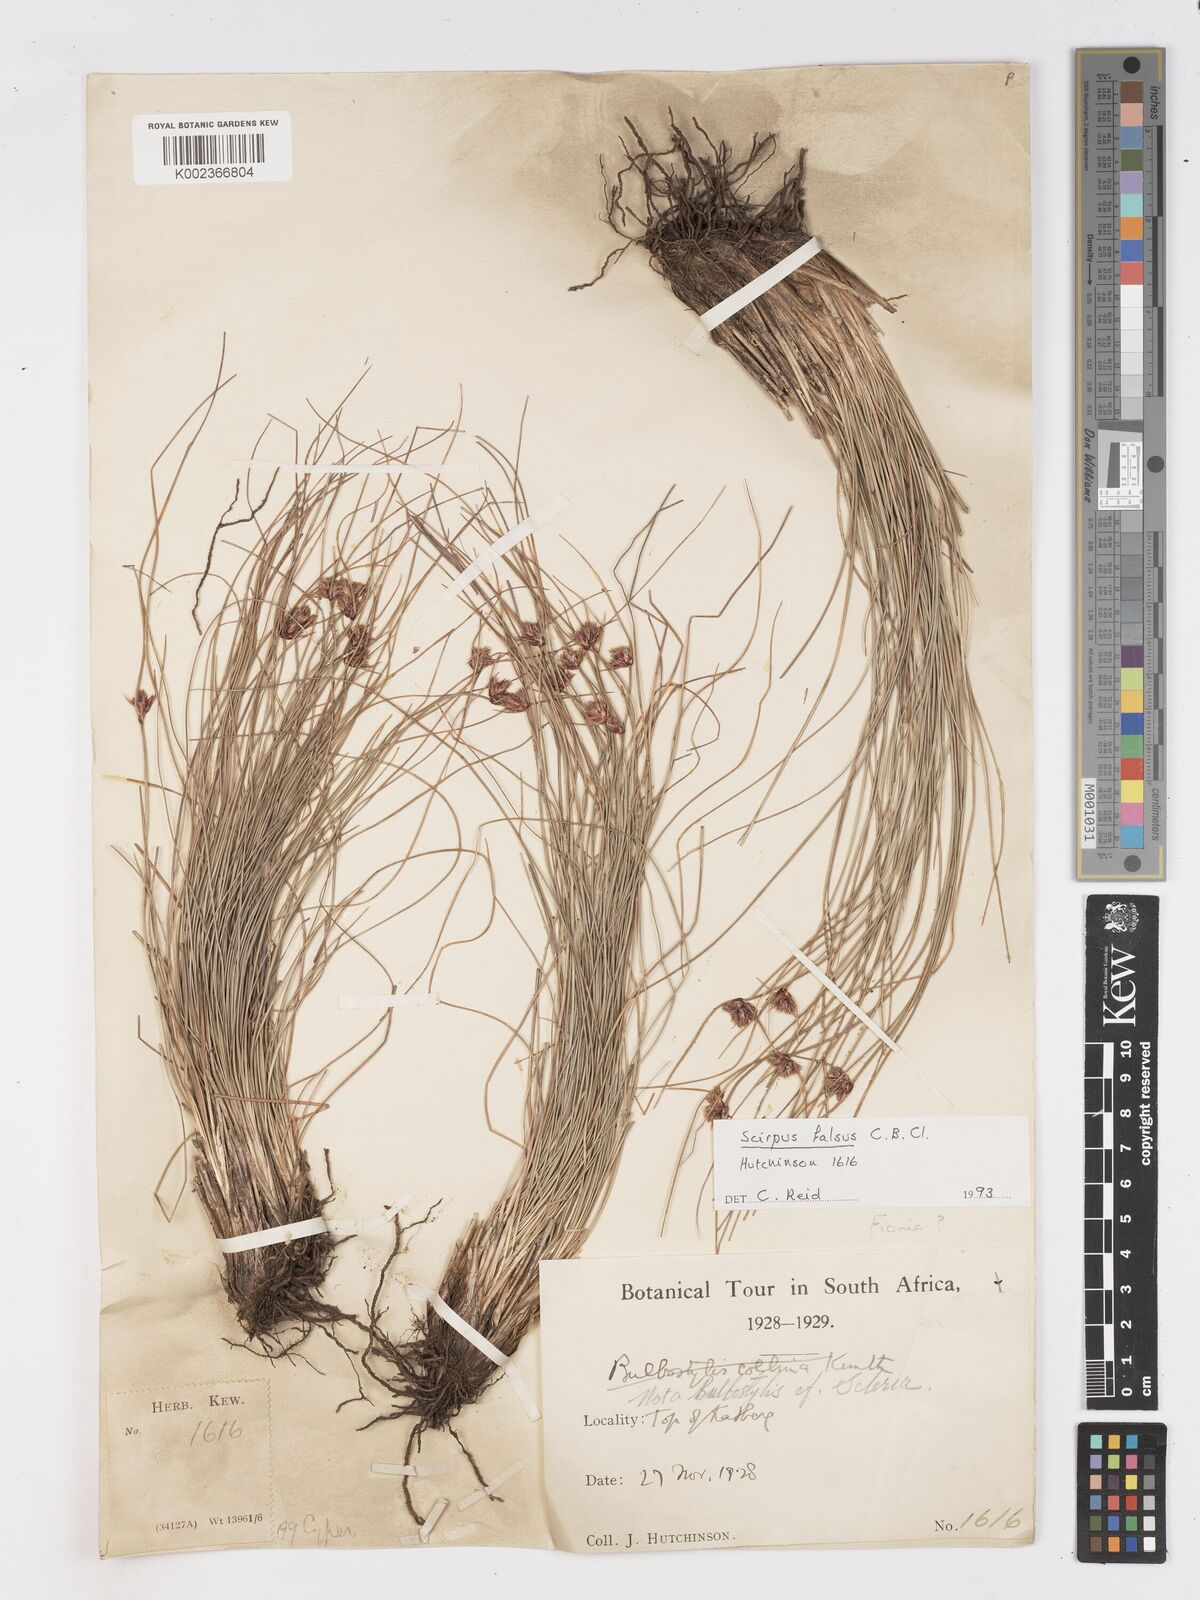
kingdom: Plantae
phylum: Tracheophyta
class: Liliopsida
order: Poales
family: Cyperaceae
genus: Dracoscirpoides
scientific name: Dracoscirpoides falsa
